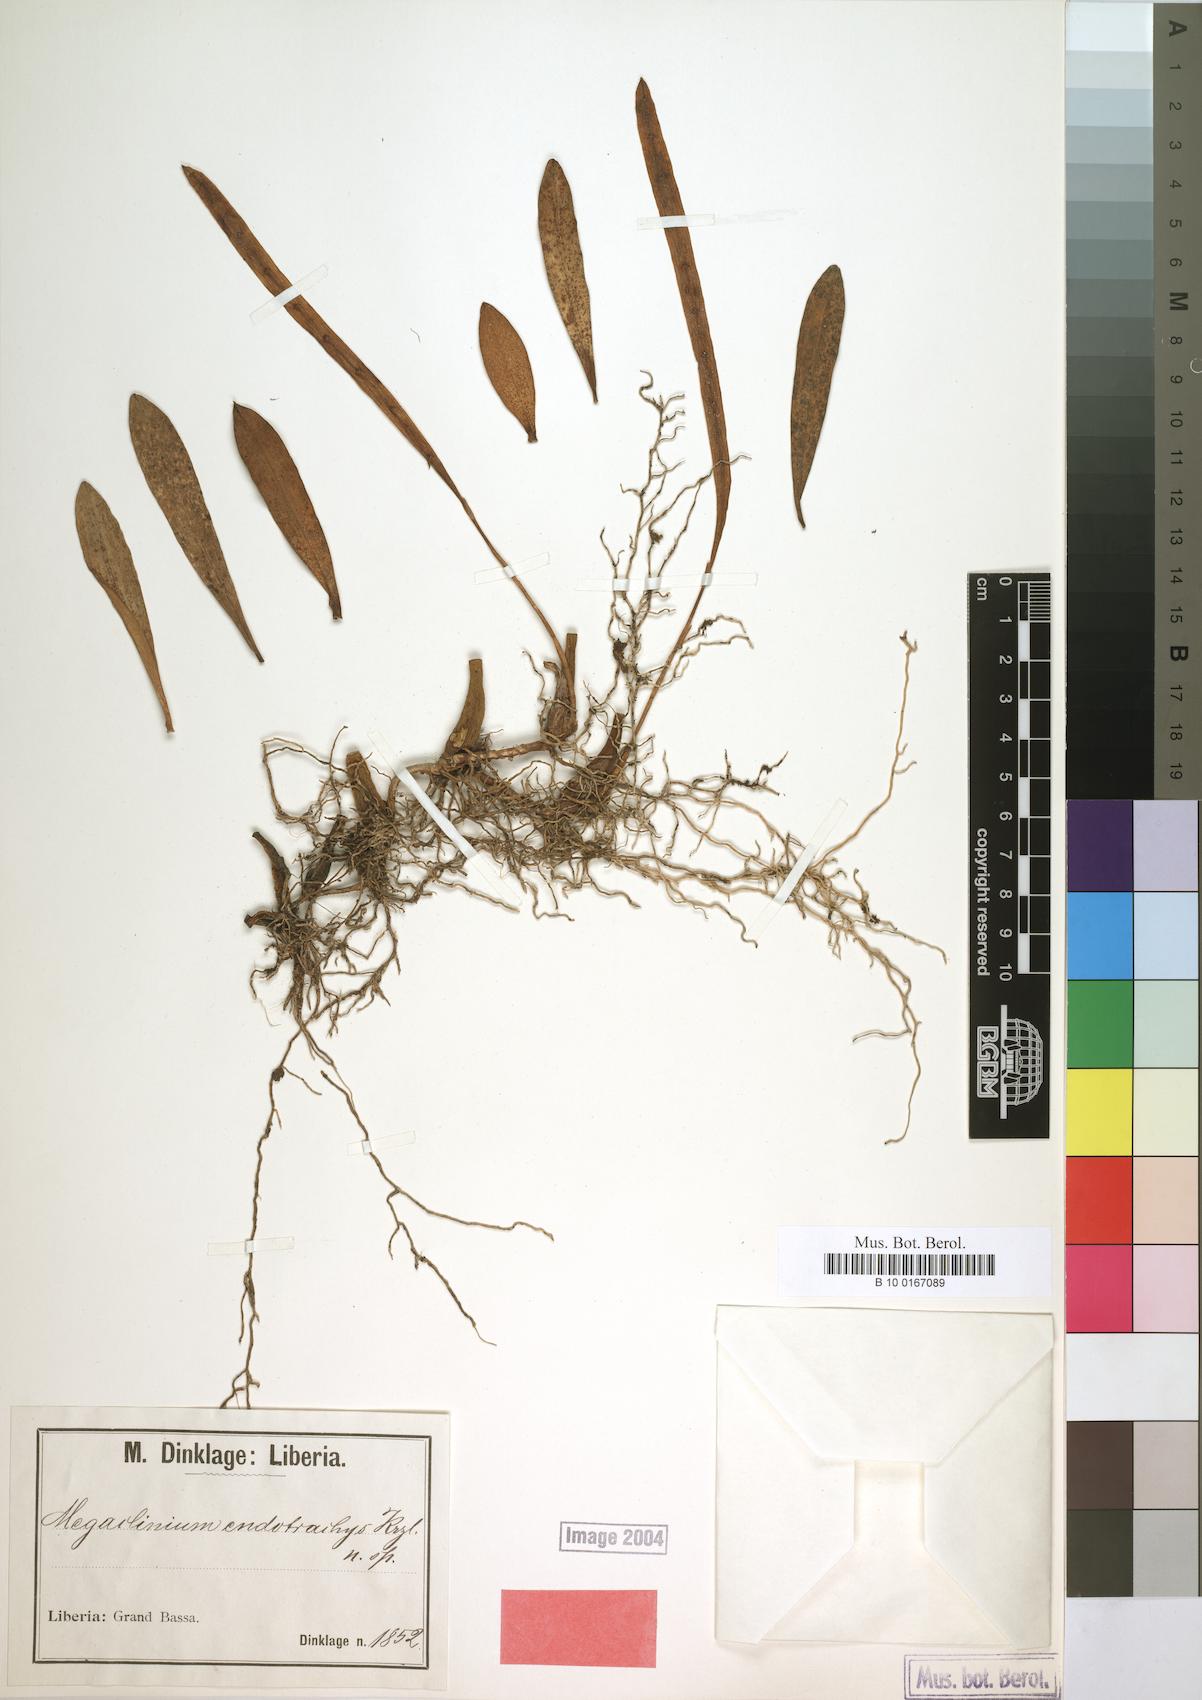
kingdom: Plantae
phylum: Tracheophyta
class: Liliopsida
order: Asparagales
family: Orchidaceae
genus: Bulbophyllum
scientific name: Bulbophyllum falcatum
